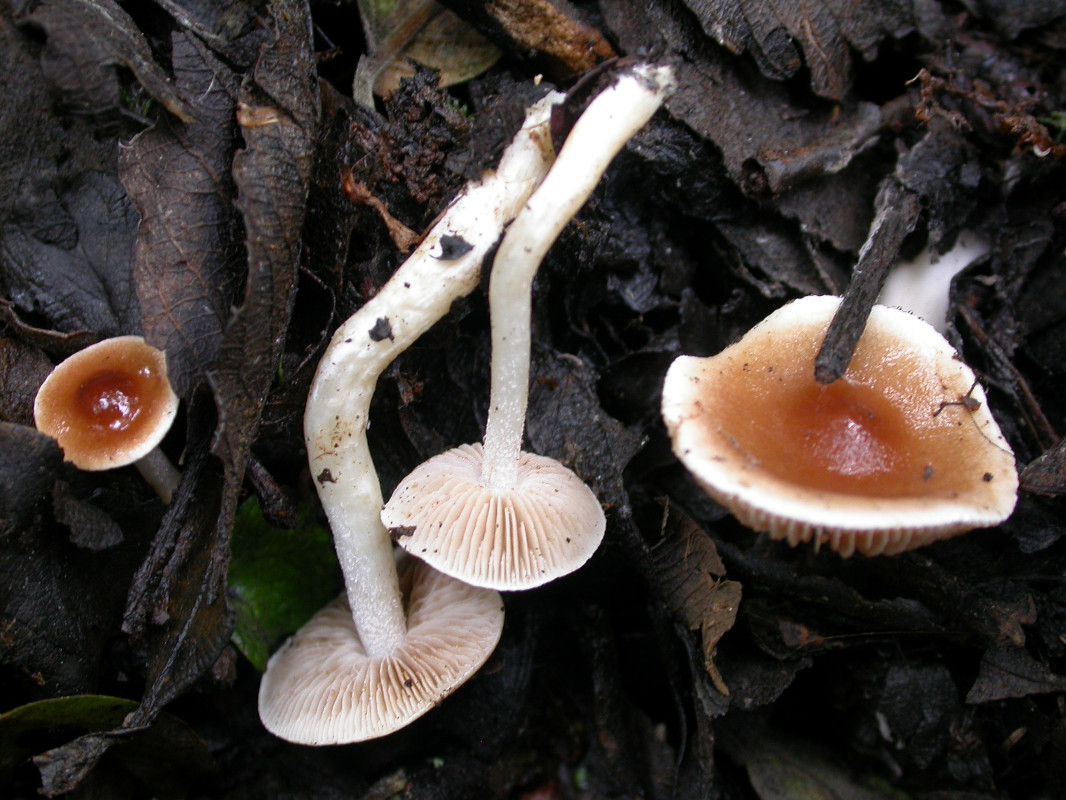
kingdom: Fungi
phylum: Basidiomycota
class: Agaricomycetes
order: Agaricales
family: Hymenogastraceae
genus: Hebeloma
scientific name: Hebeloma pusillum
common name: mose-tåreblad
